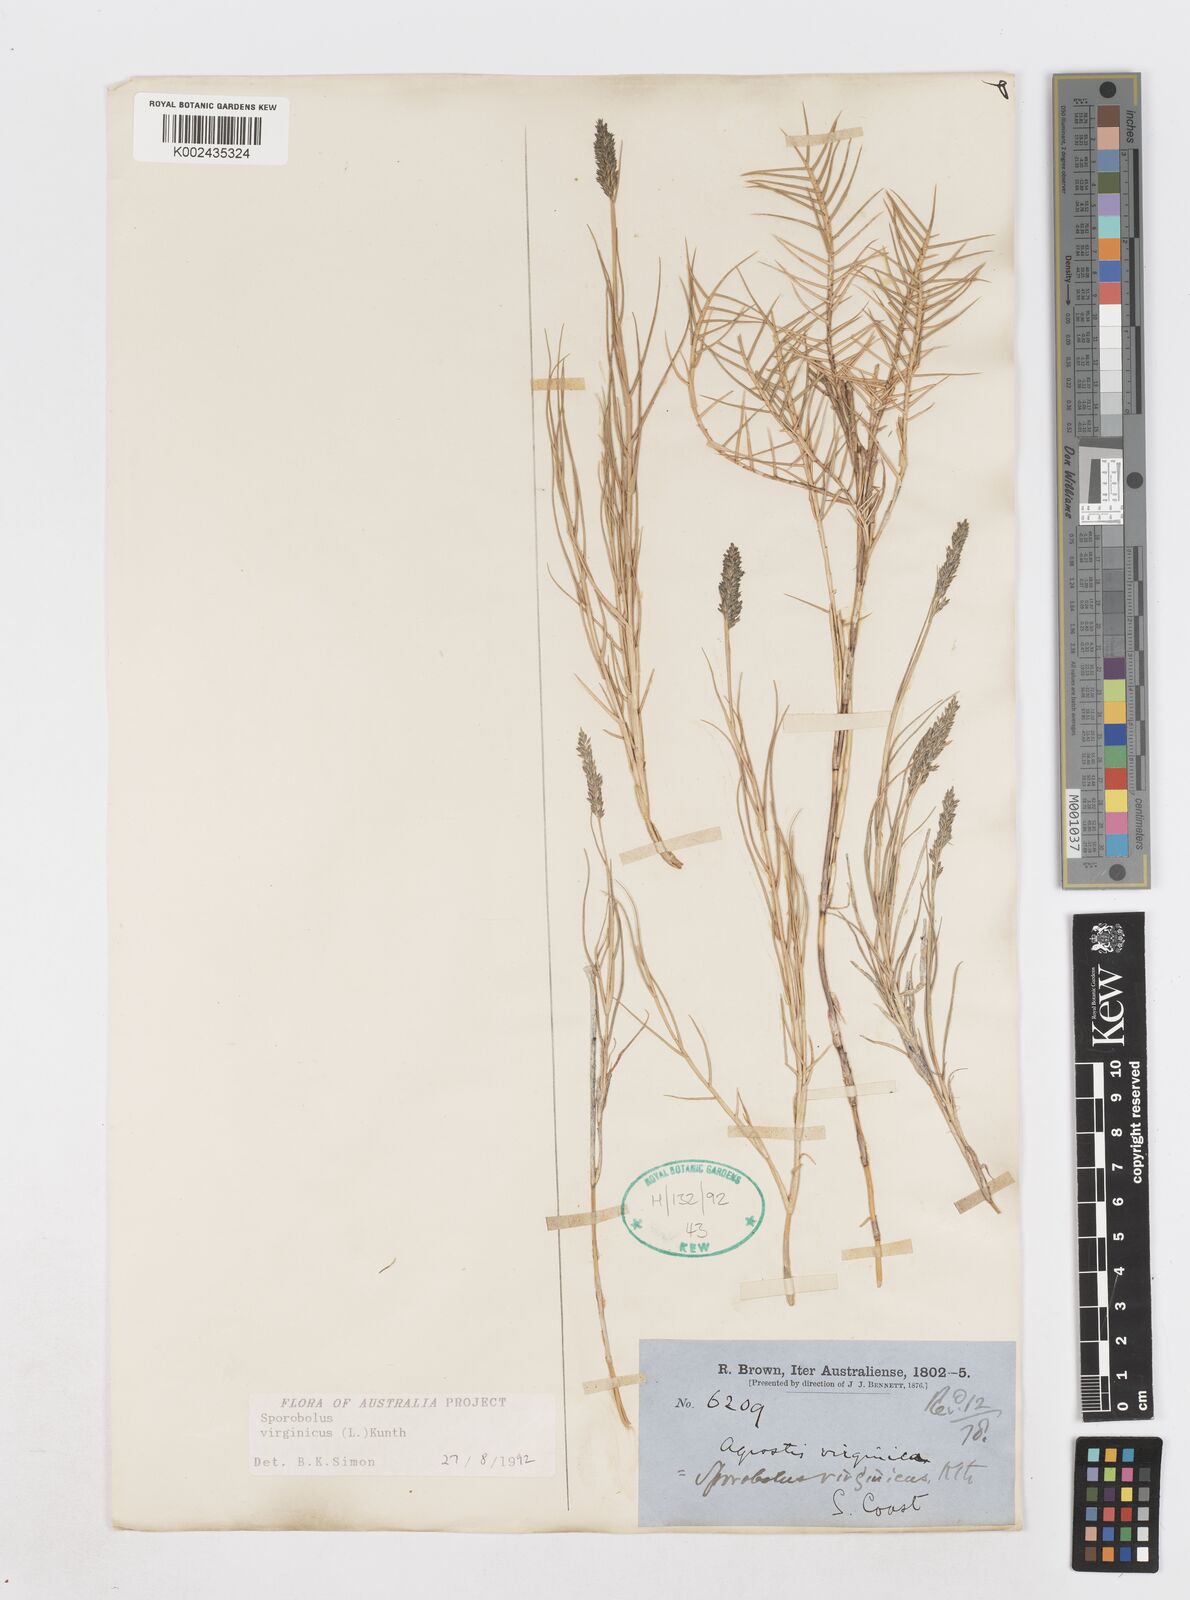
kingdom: Plantae
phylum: Tracheophyta
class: Liliopsida
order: Poales
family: Poaceae
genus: Sporobolus
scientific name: Sporobolus virginicus
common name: Beach dropseed
